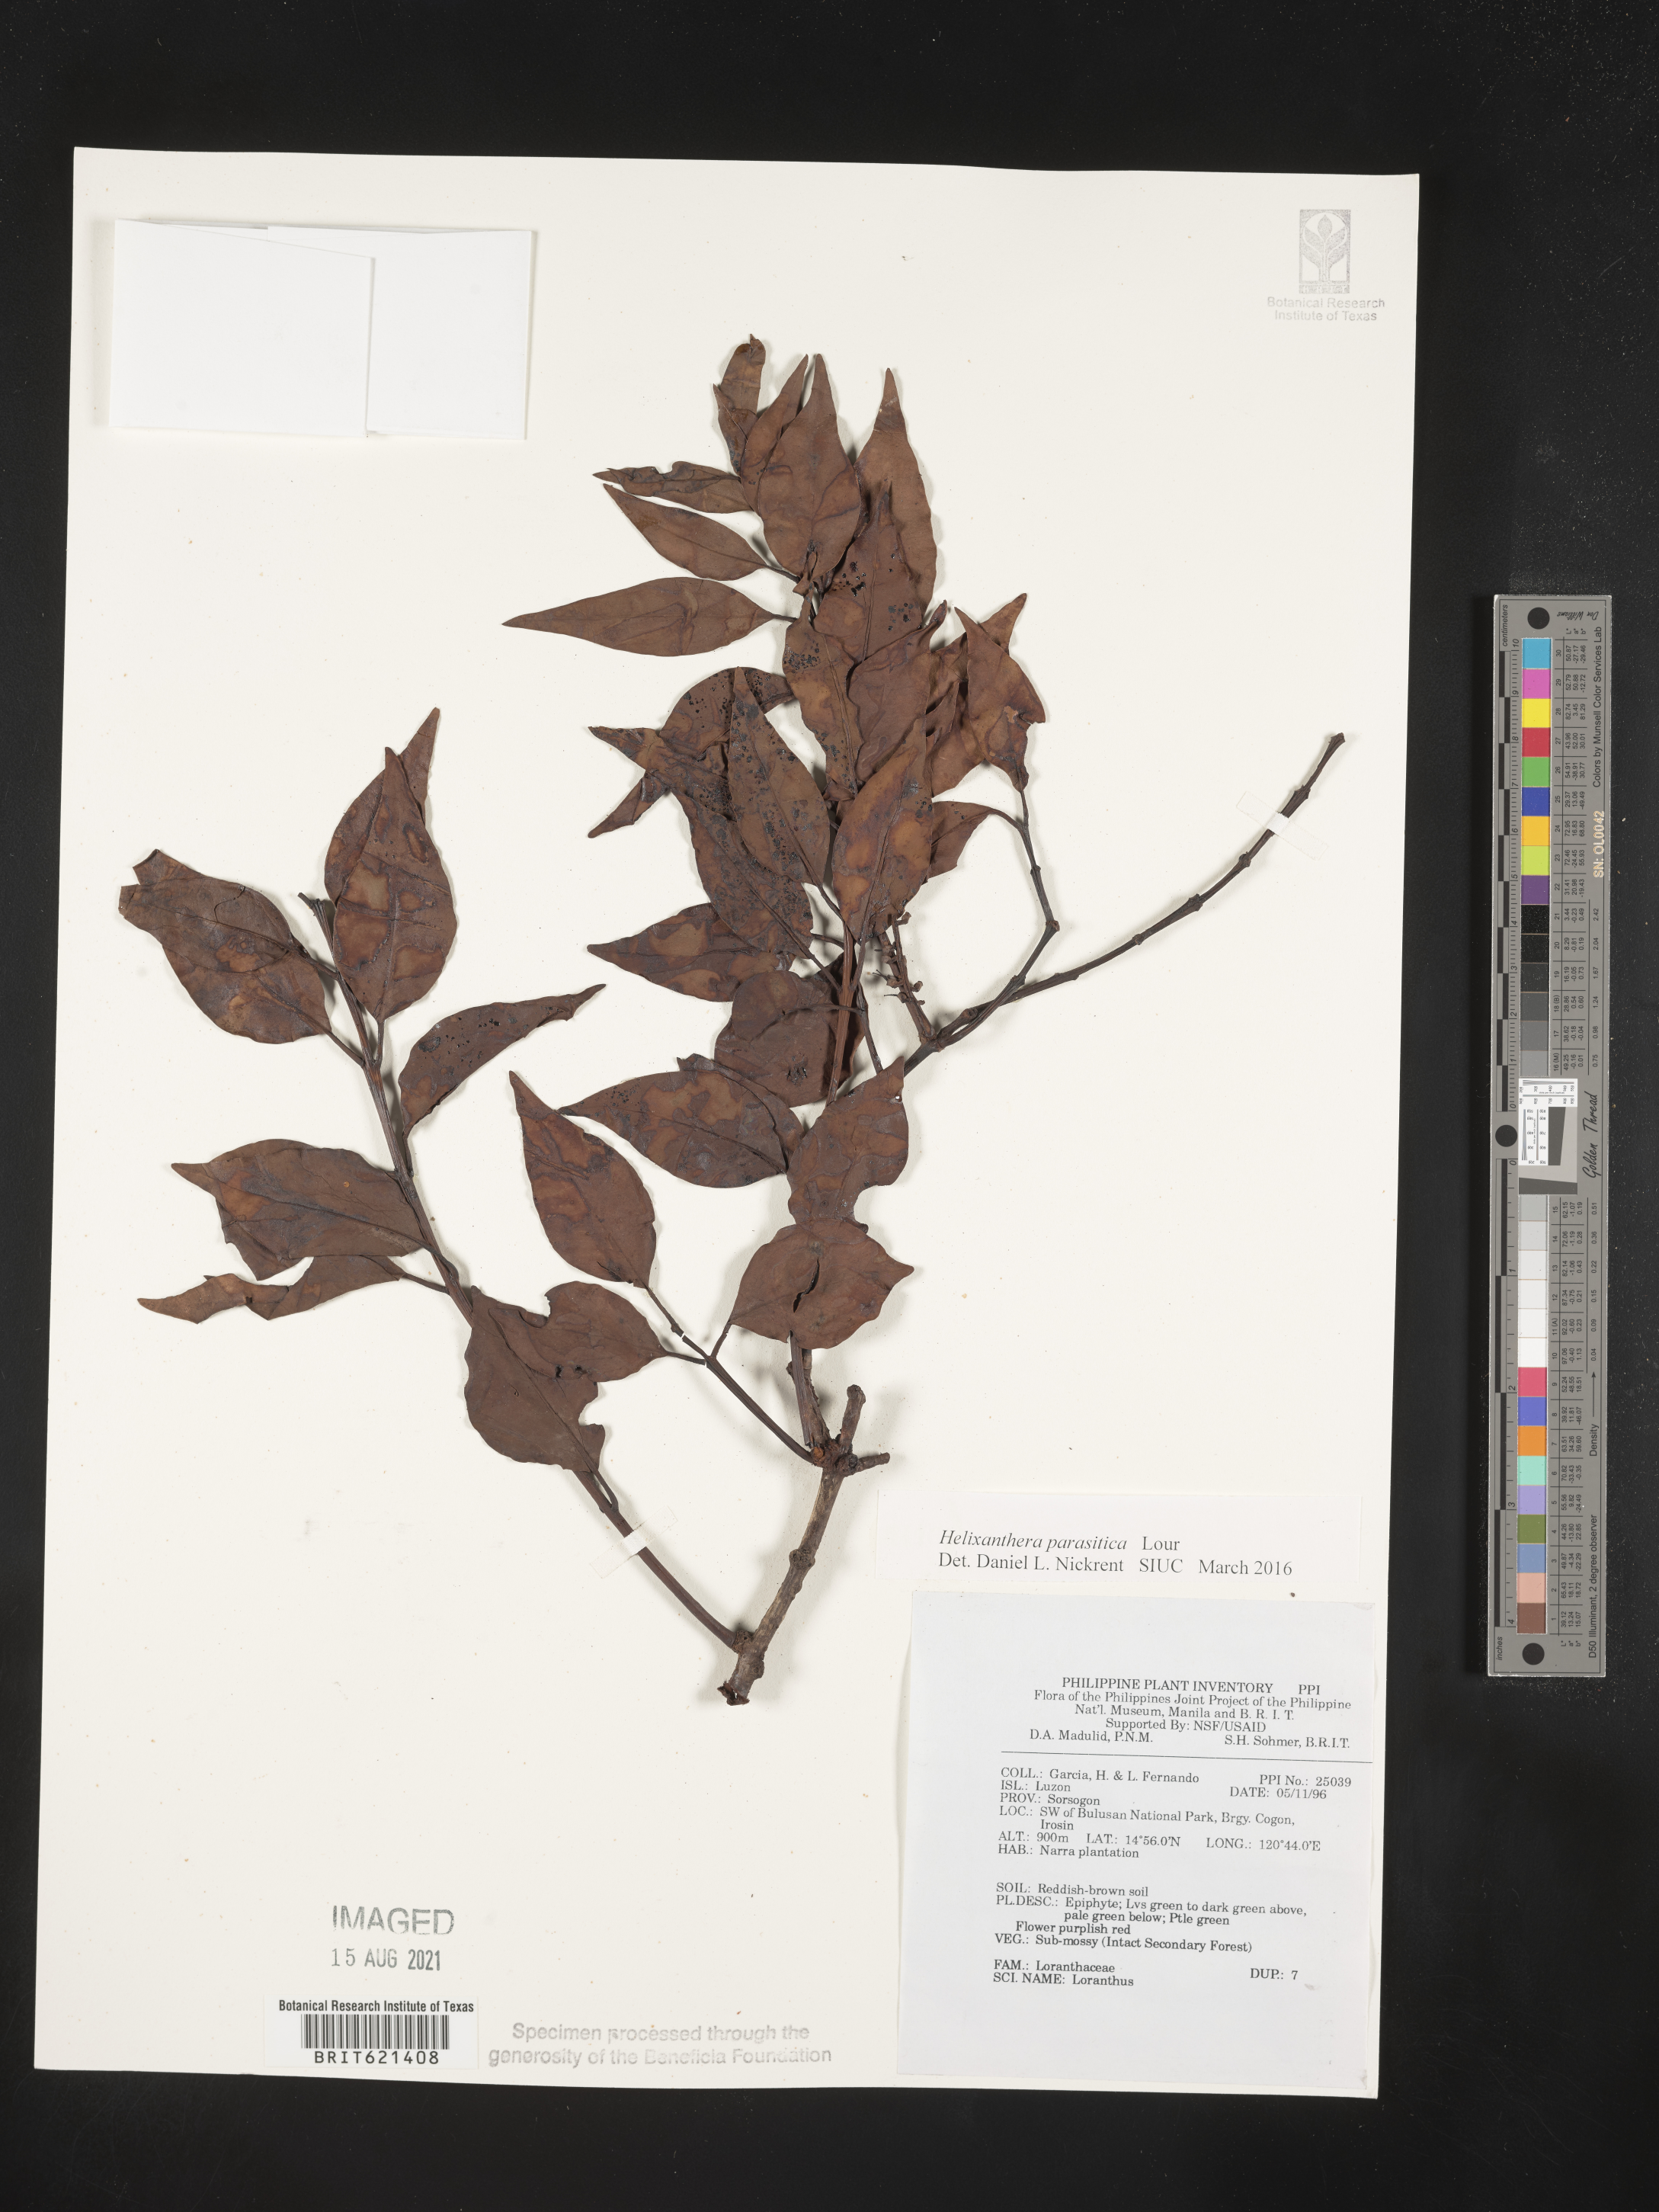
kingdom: Plantae
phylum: Tracheophyta
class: Magnoliopsida
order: Santalales
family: Loranthaceae
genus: Helixanthera
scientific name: Helixanthera parasitica
